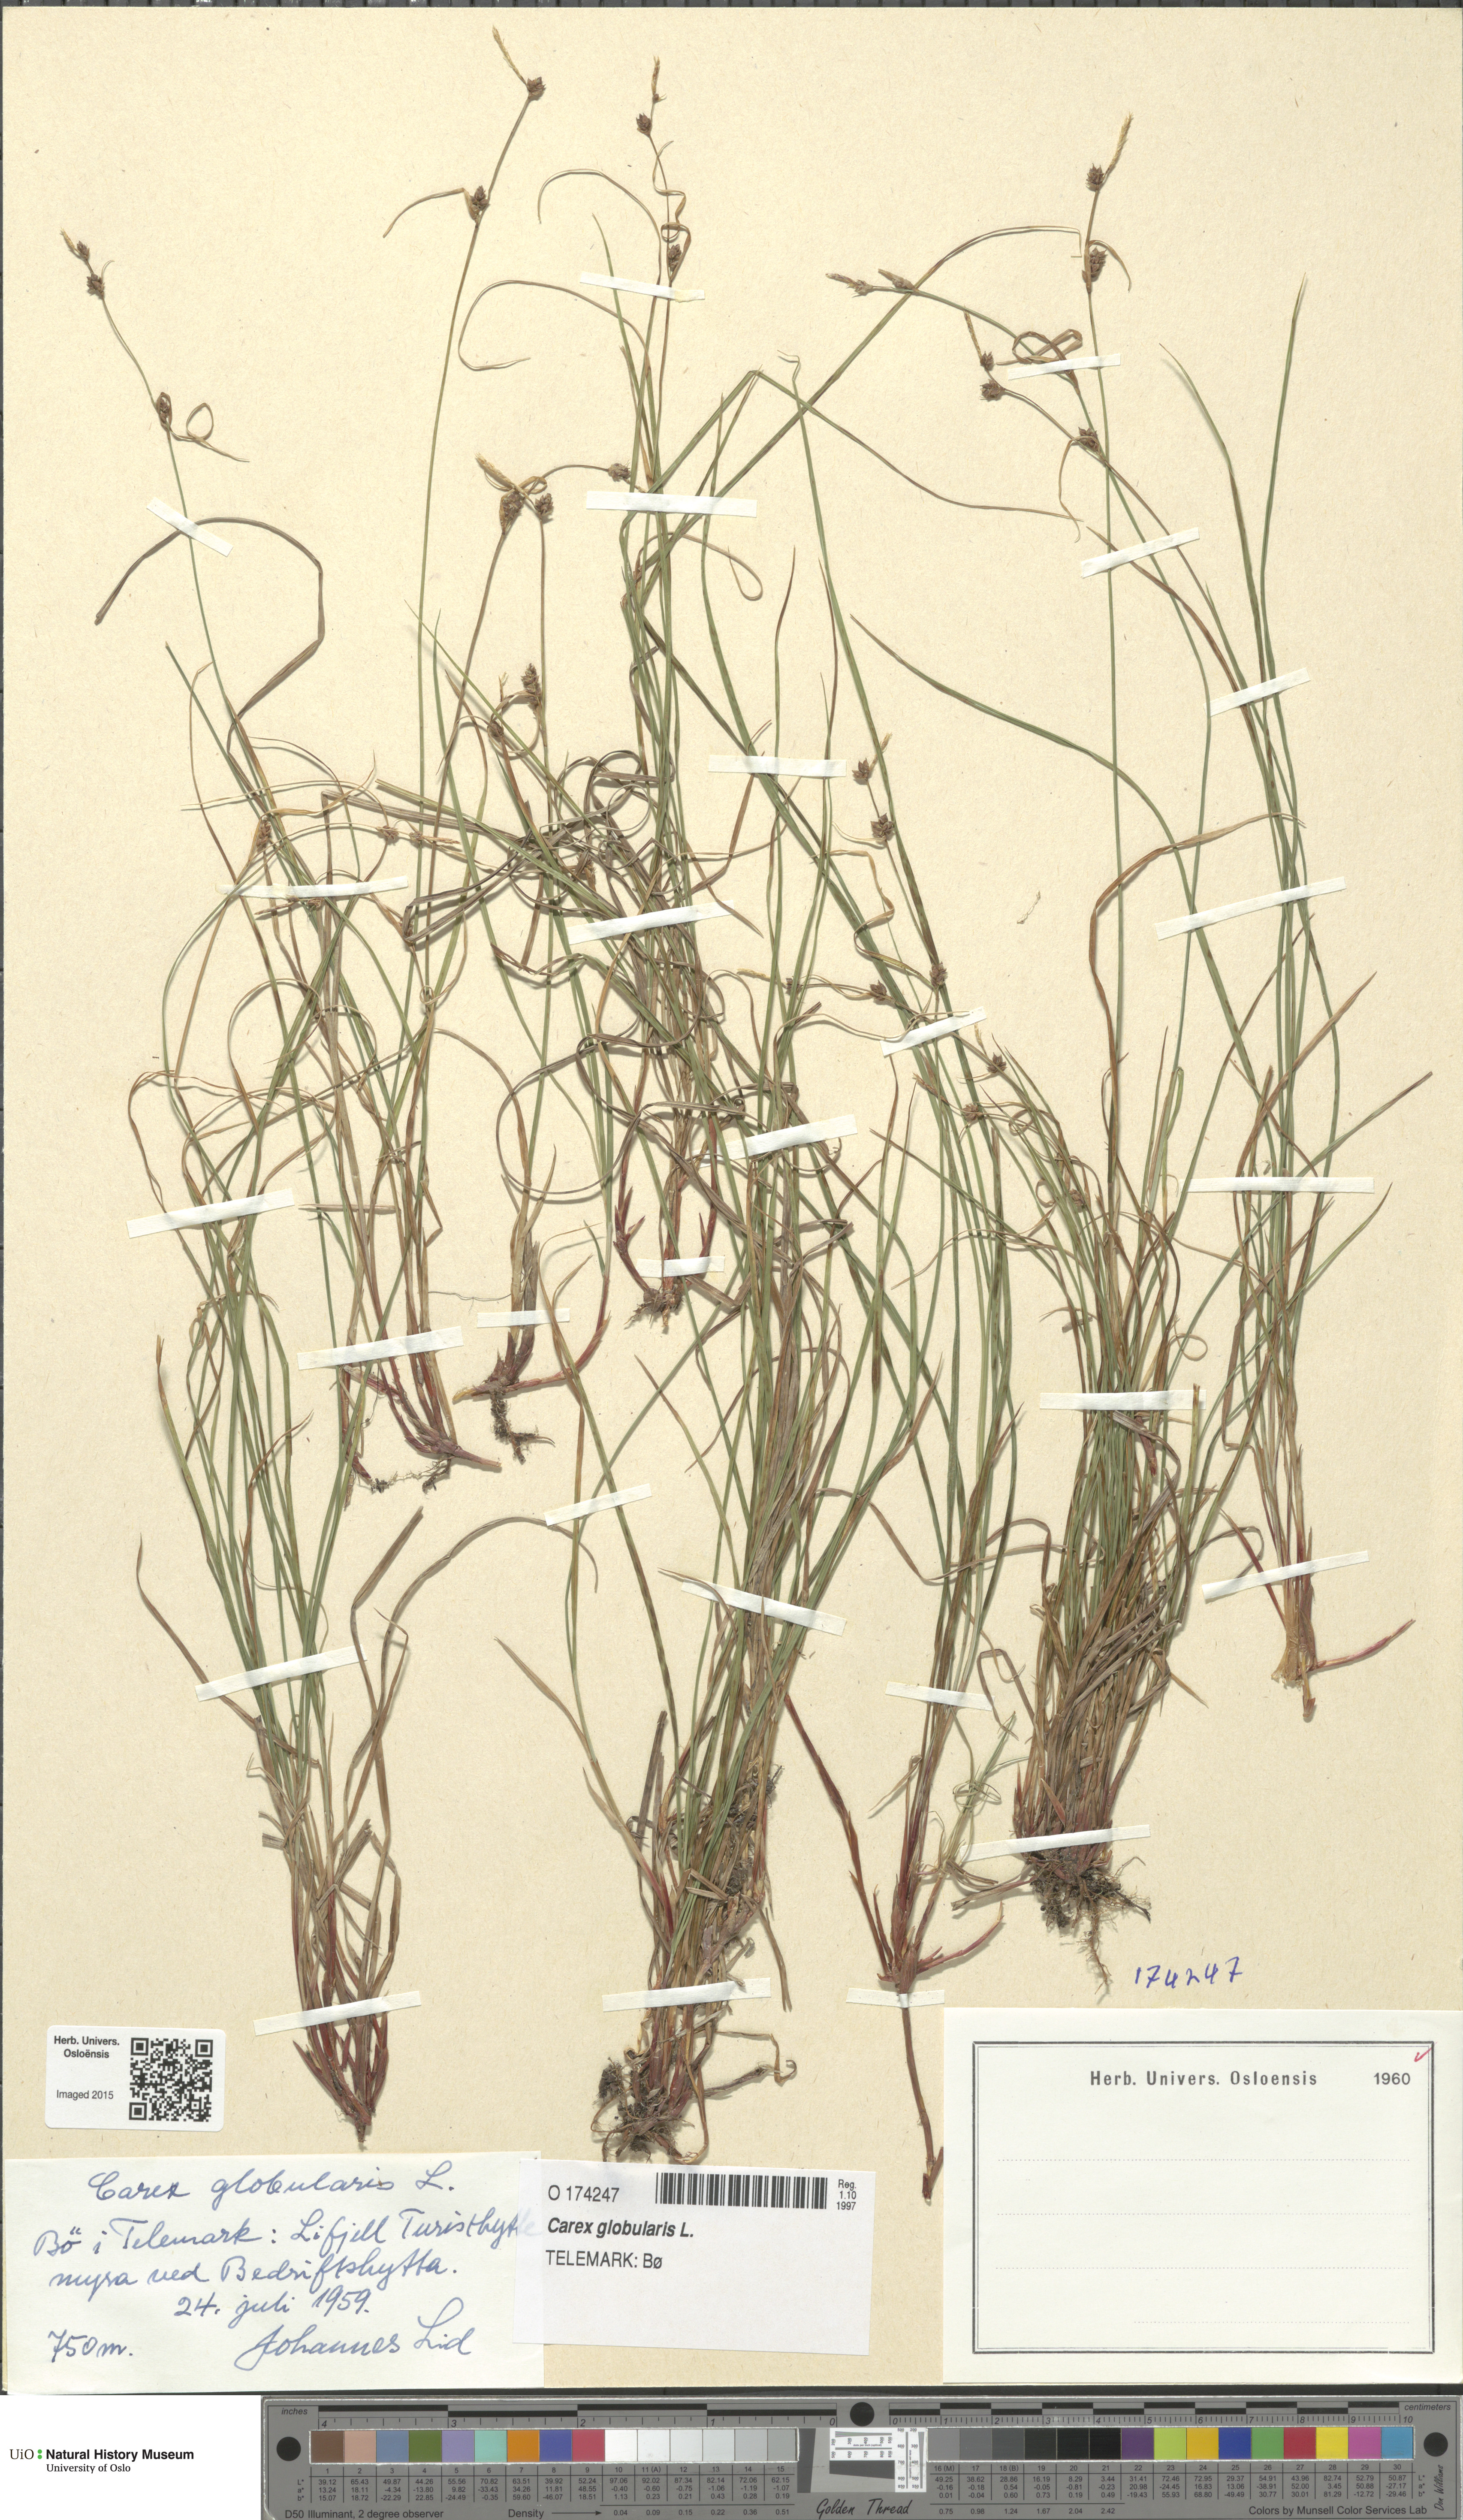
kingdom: Plantae
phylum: Tracheophyta
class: Liliopsida
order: Poales
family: Cyperaceae
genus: Carex
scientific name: Carex globularis
